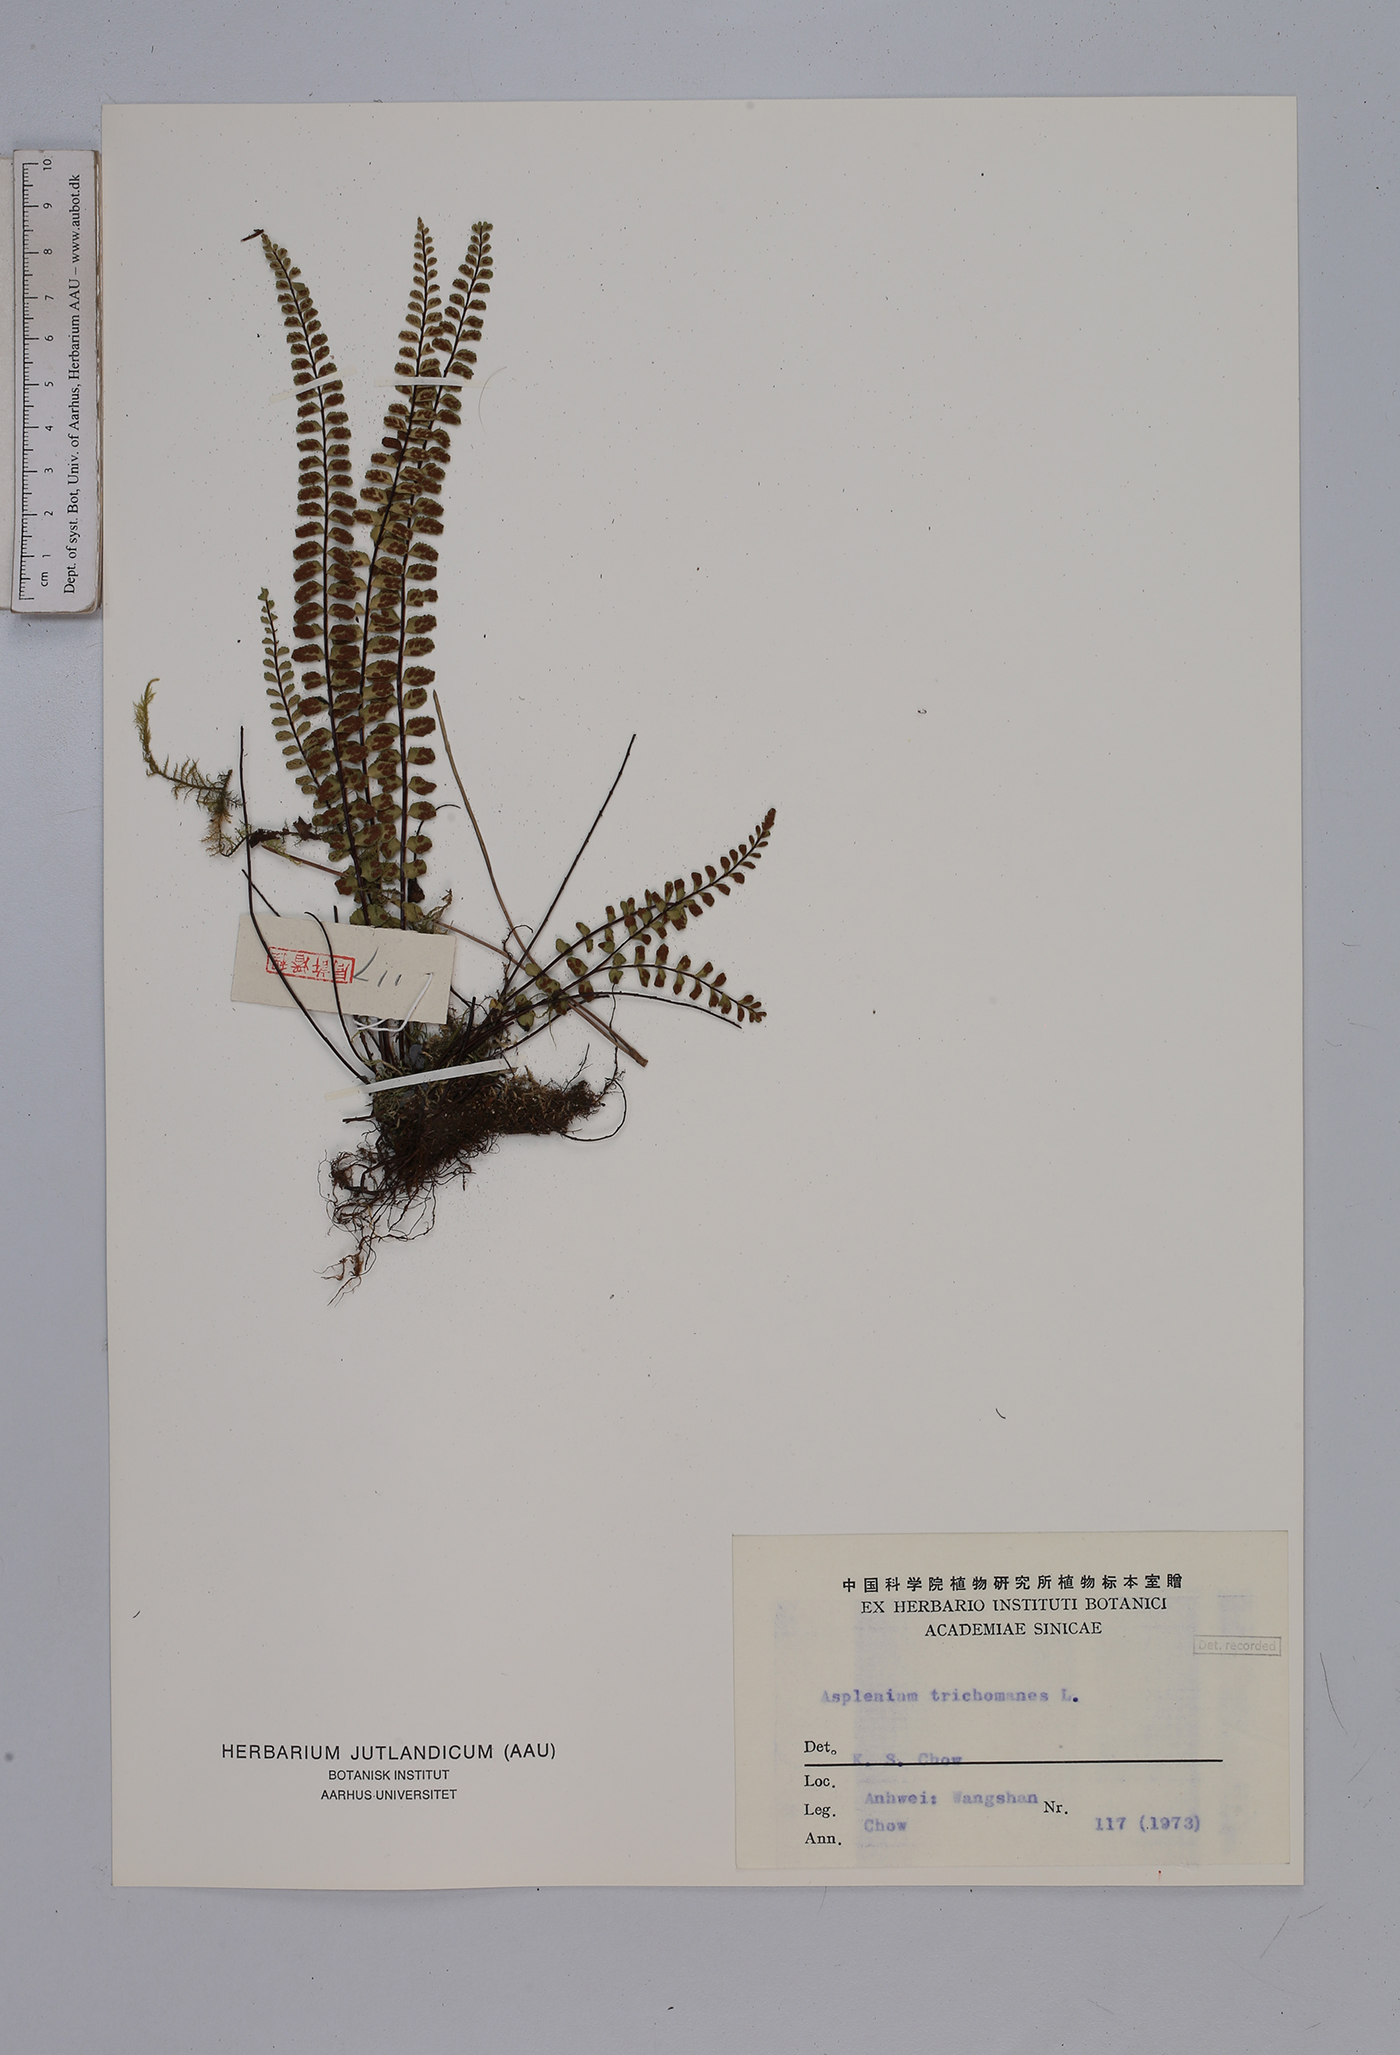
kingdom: Plantae
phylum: Tracheophyta
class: Polypodiopsida
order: Polypodiales
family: Aspleniaceae
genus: Asplenium
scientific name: Asplenium trichomanes
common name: Maidenhair spleenwort
